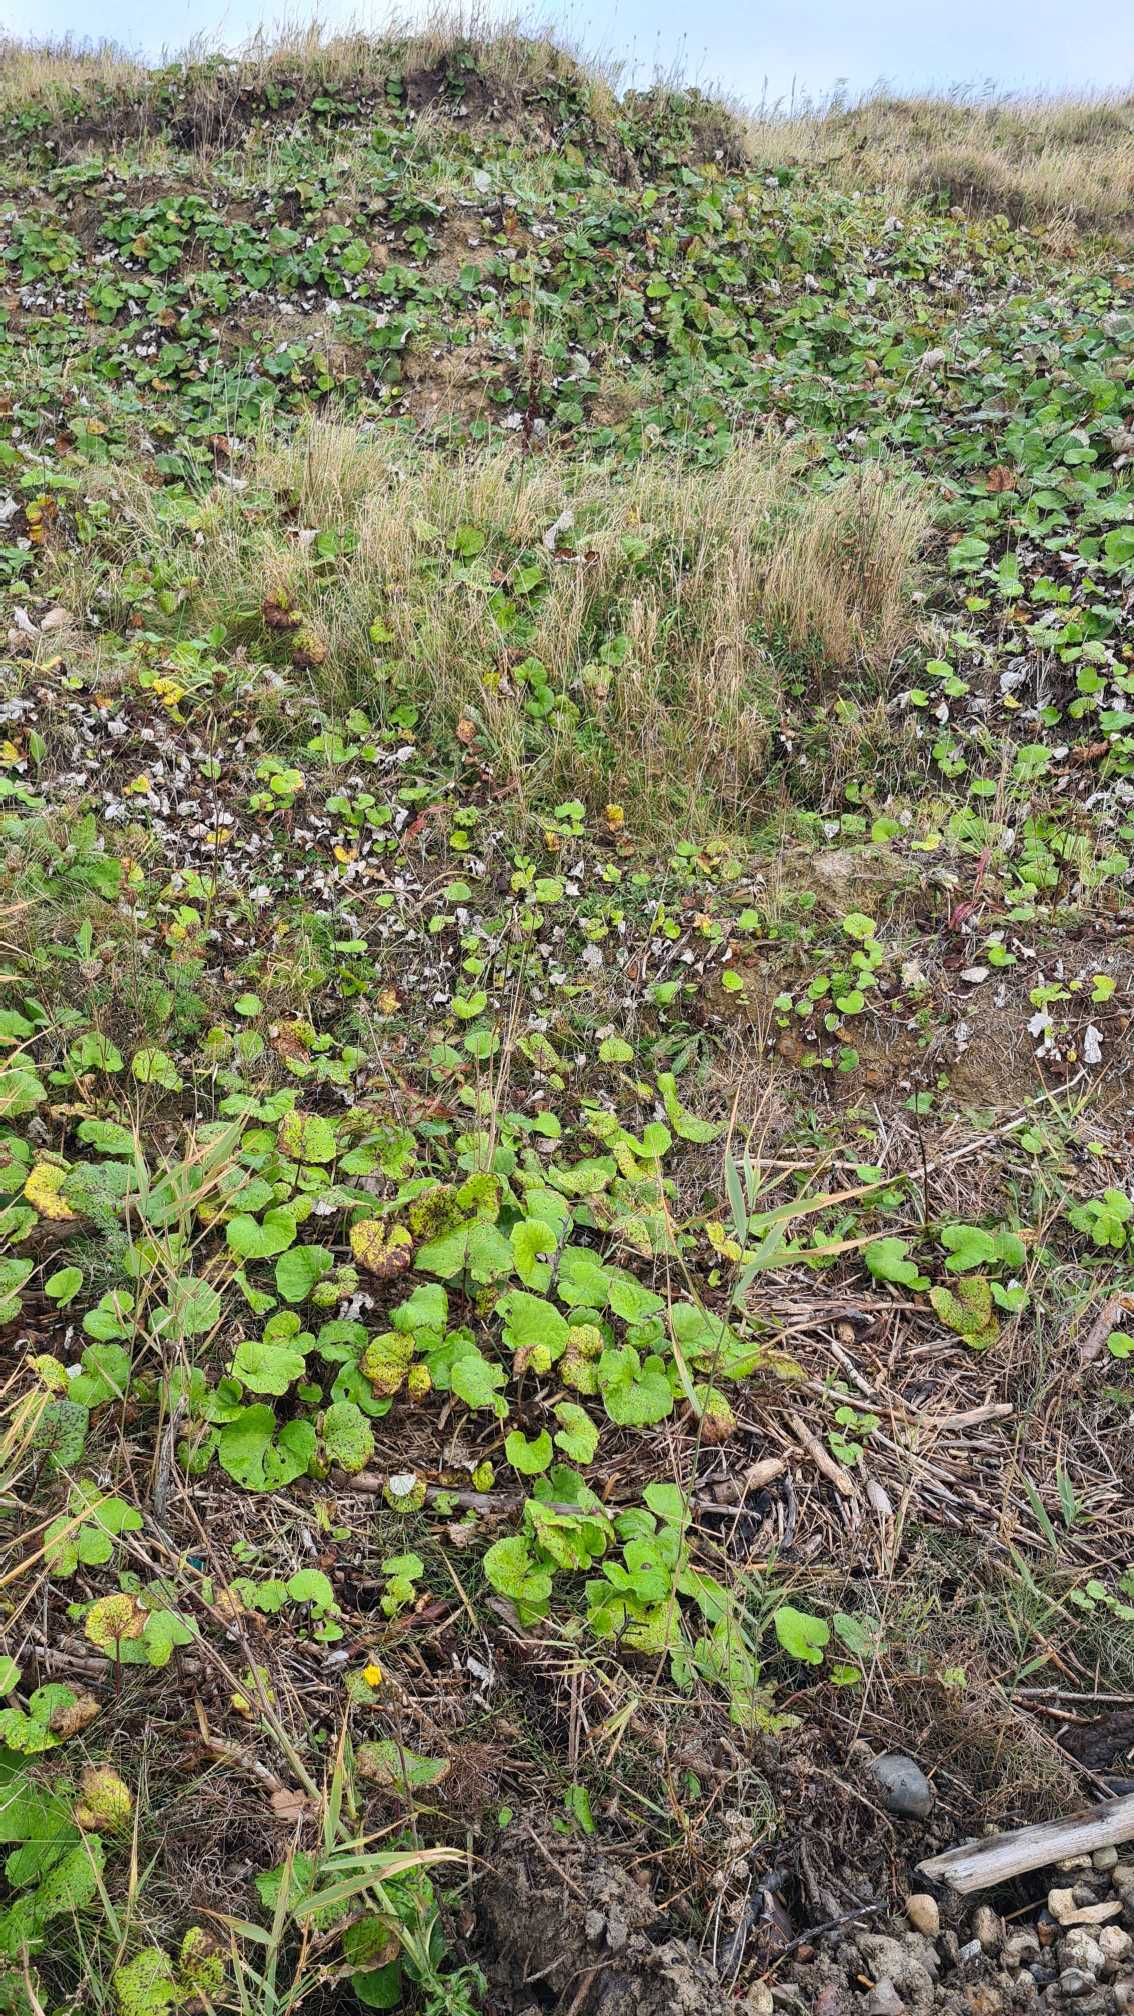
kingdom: Plantae
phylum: Tracheophyta
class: Magnoliopsida
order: Asterales
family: Asteraceae
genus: Tussilago
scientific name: Tussilago farfara
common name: Følfod
